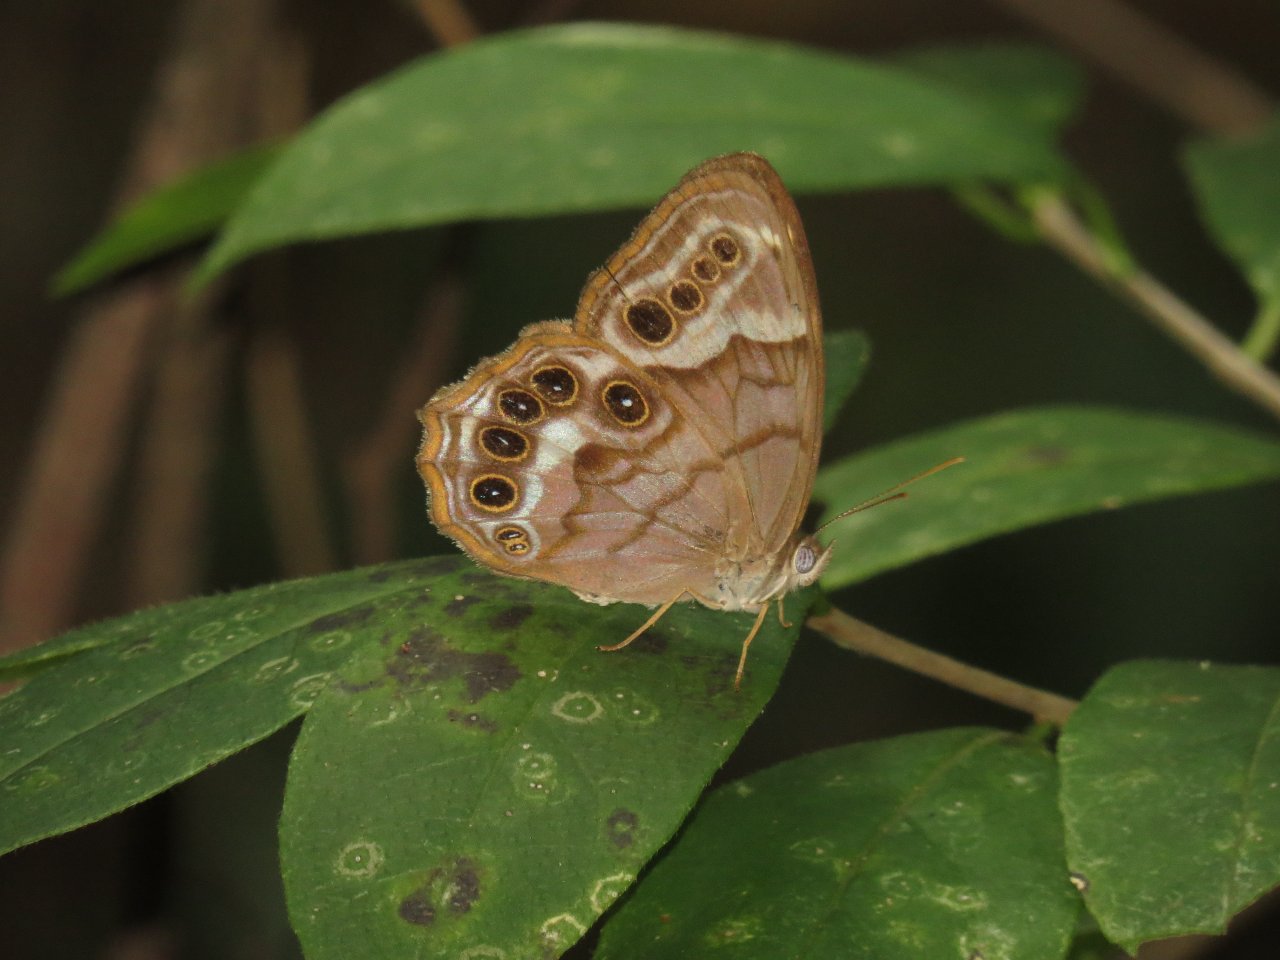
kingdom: Animalia
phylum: Arthropoda
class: Insecta
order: Lepidoptera
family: Nymphalidae
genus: Enodia
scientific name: Enodia portlandia
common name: Southern Pearly Eye
